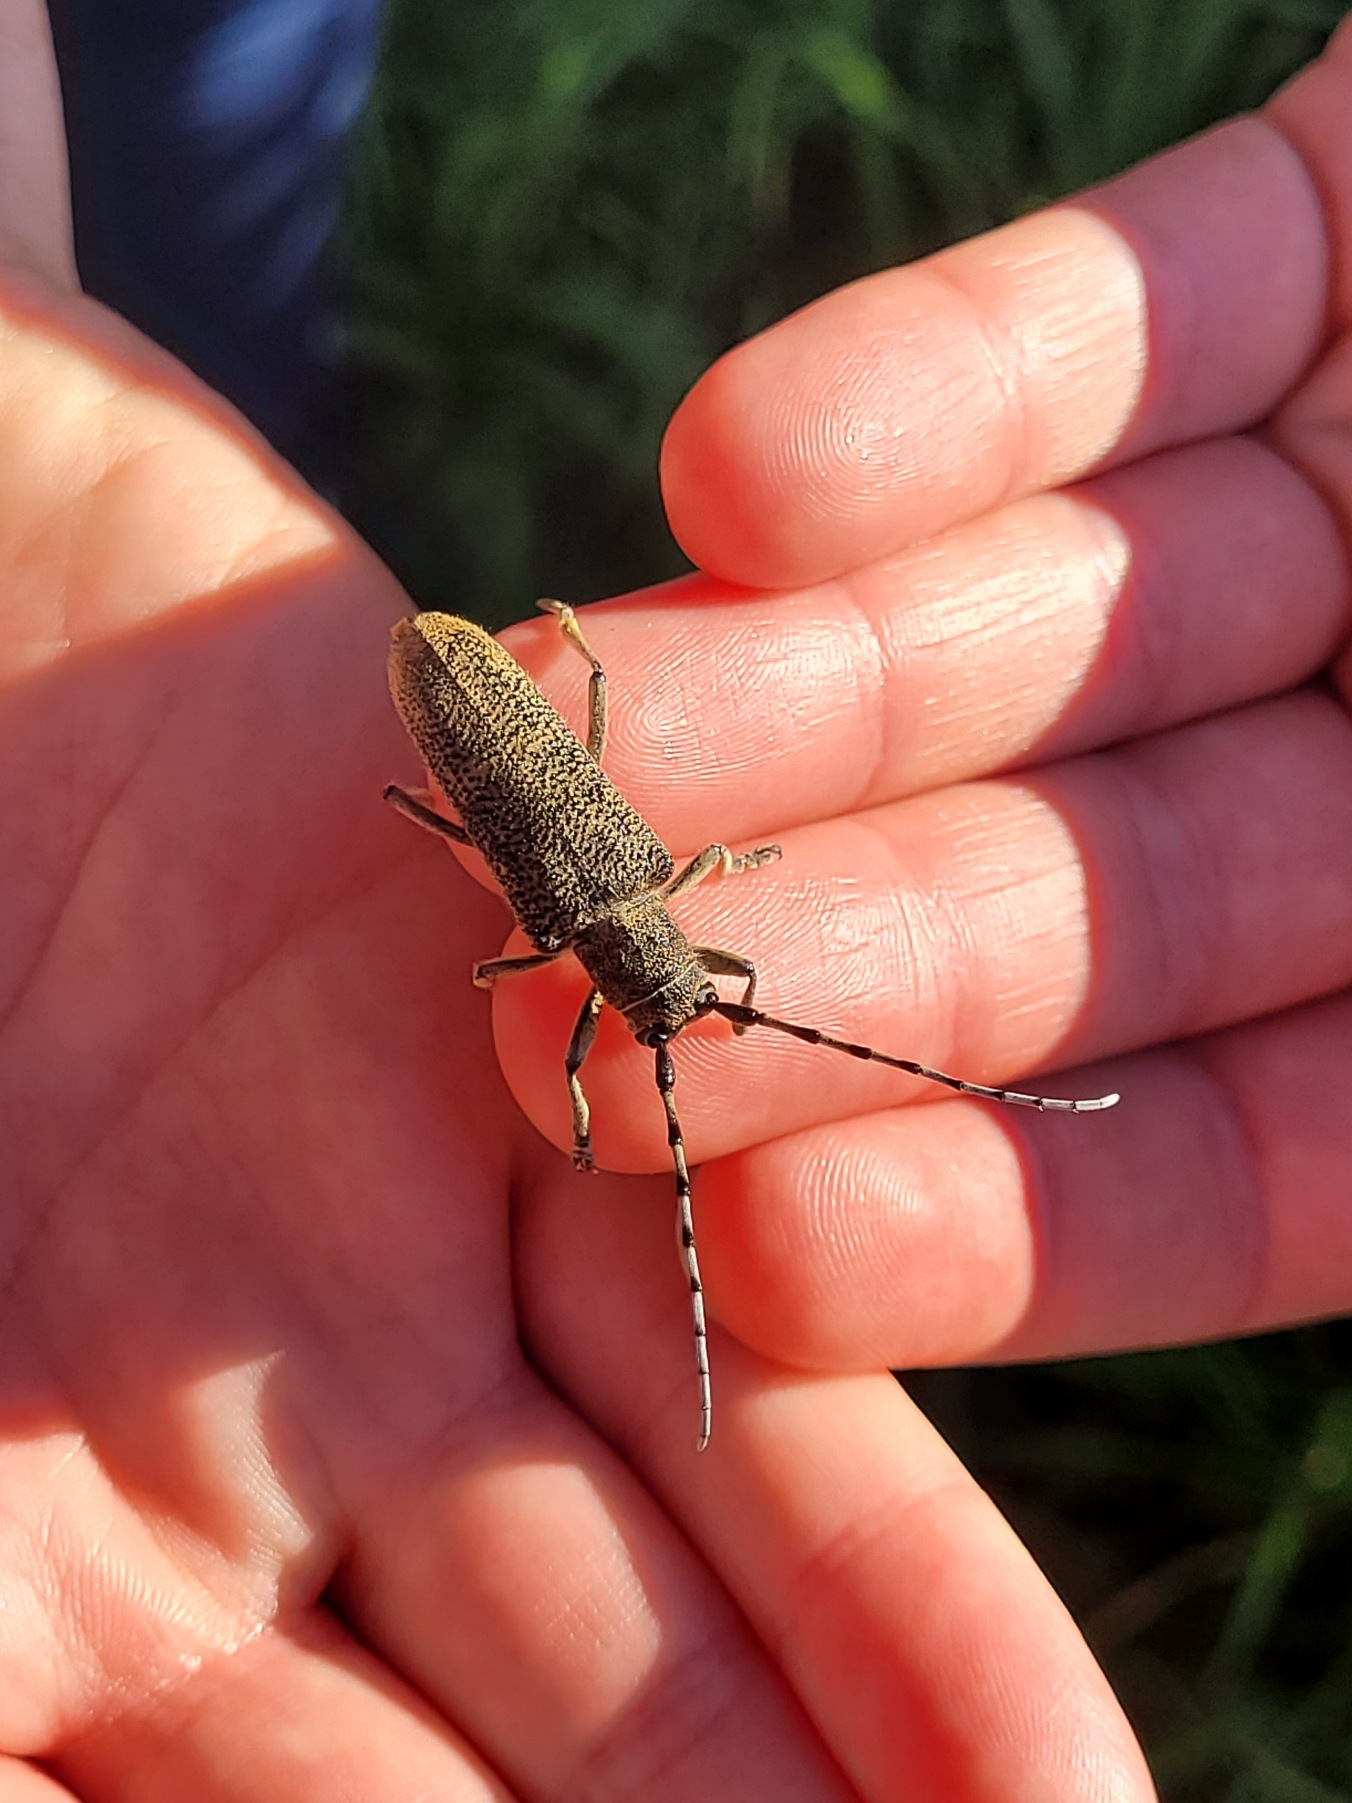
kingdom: Animalia
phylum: Arthropoda
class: Insecta
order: Coleoptera
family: Cerambycidae
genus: Saperda
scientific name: Saperda carcharias
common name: Poppelbuk
